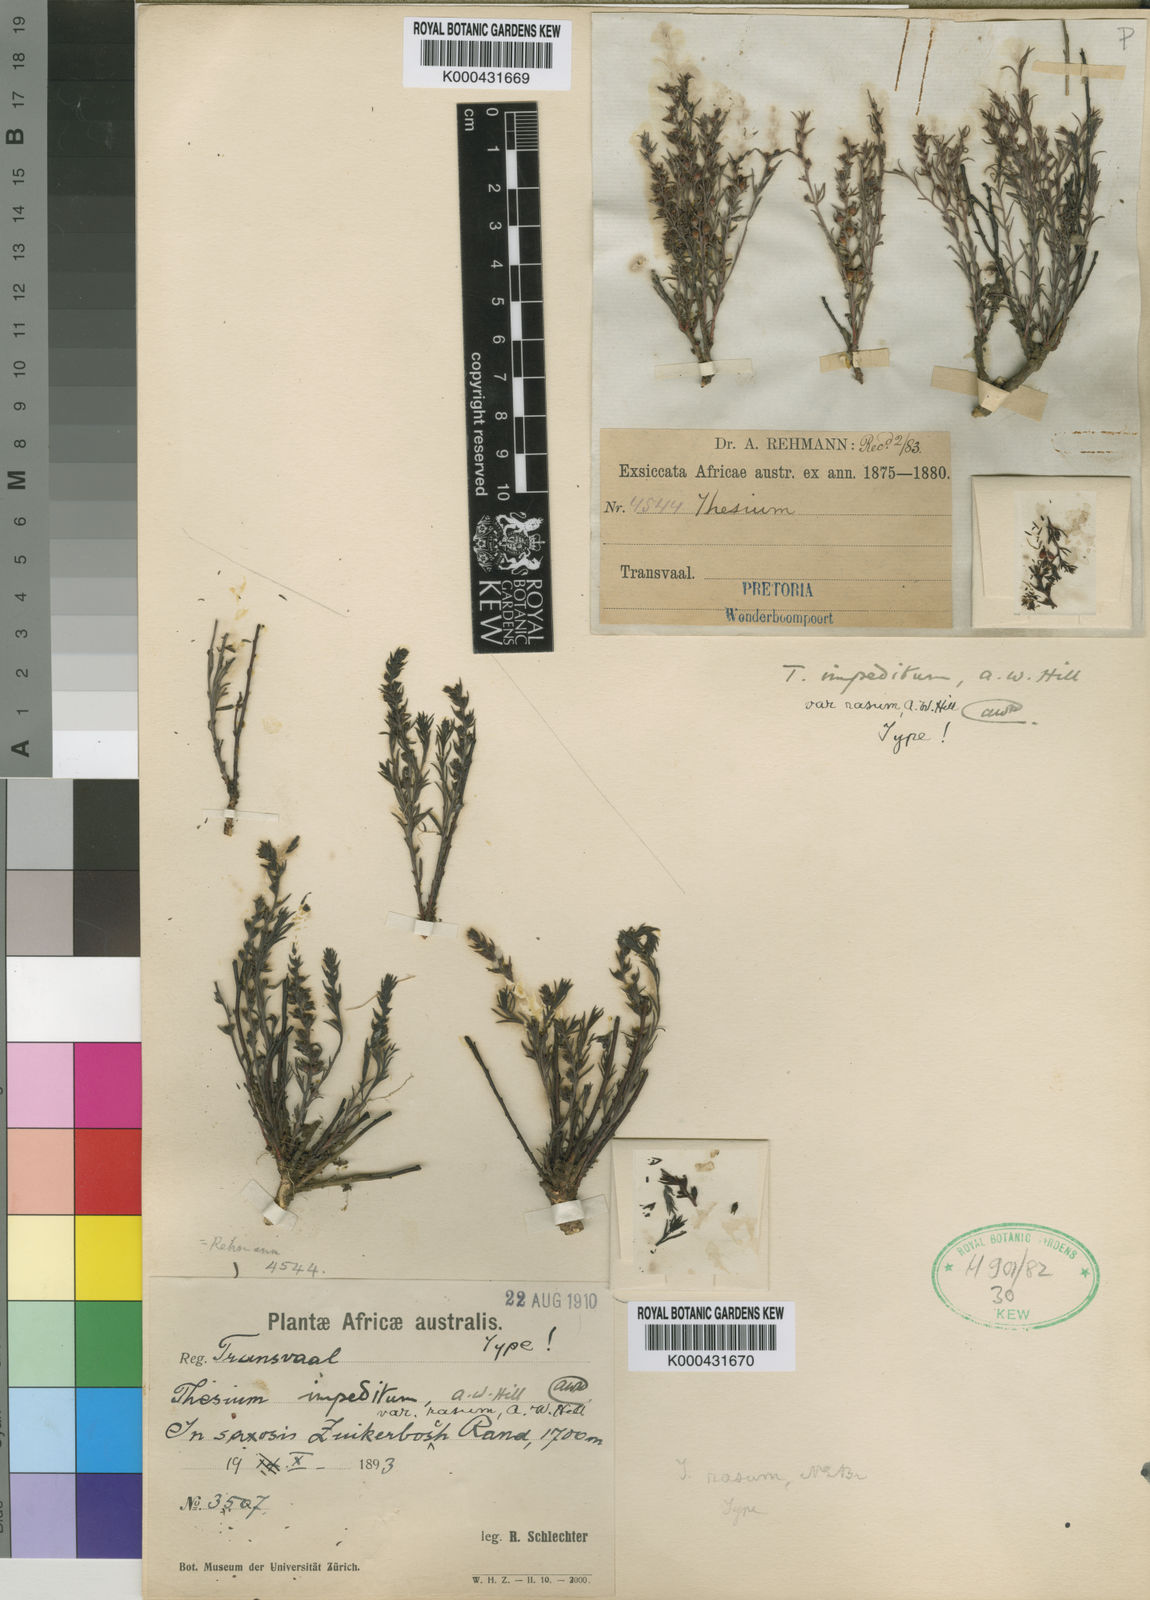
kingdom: Plantae
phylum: Tracheophyta
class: Magnoliopsida
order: Santalales
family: Thesiaceae
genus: Thesium
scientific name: Thesium impeditum
